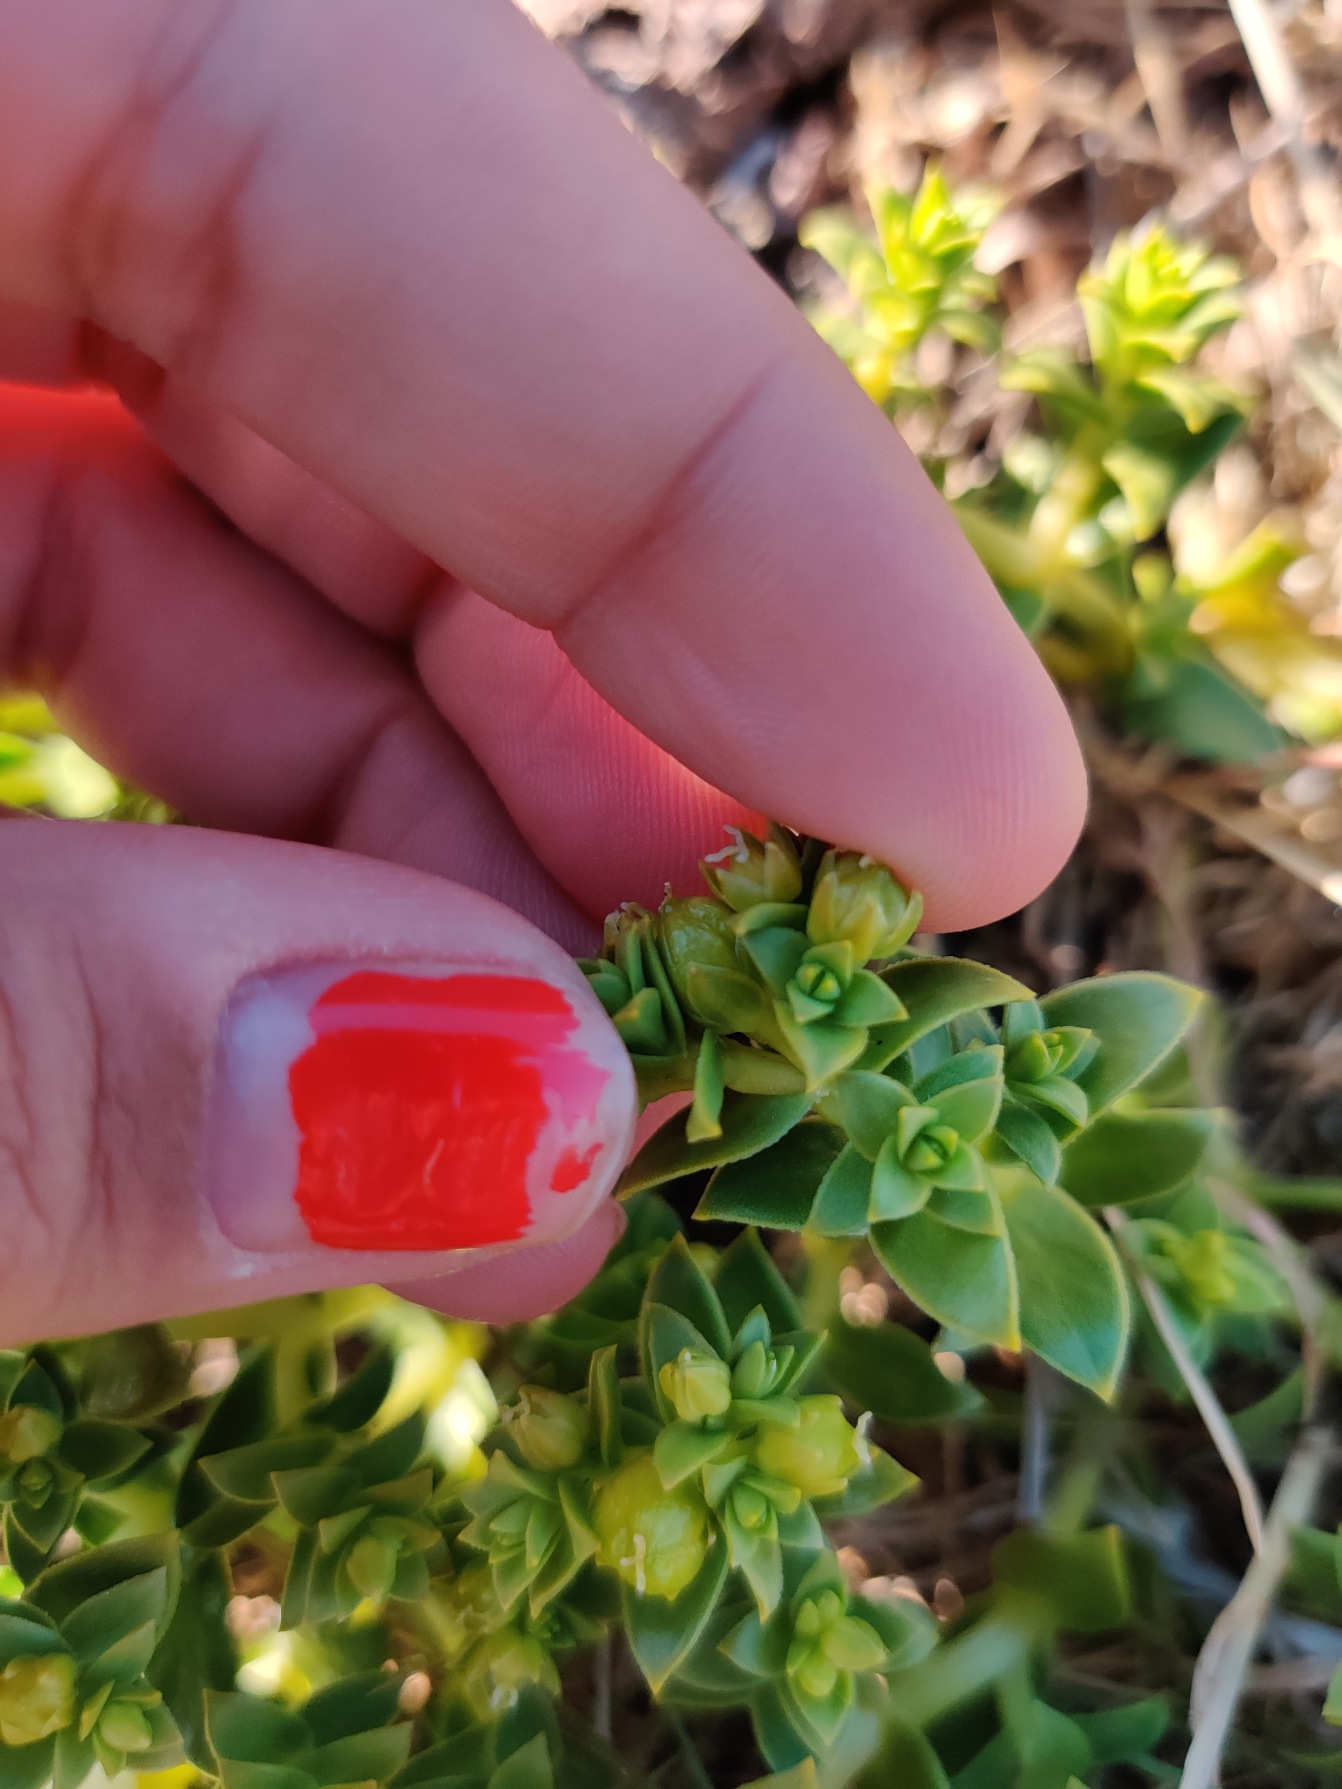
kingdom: Plantae
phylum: Tracheophyta
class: Magnoliopsida
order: Caryophyllales
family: Caryophyllaceae
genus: Honckenya
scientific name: Honckenya peploides
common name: Strandarve
